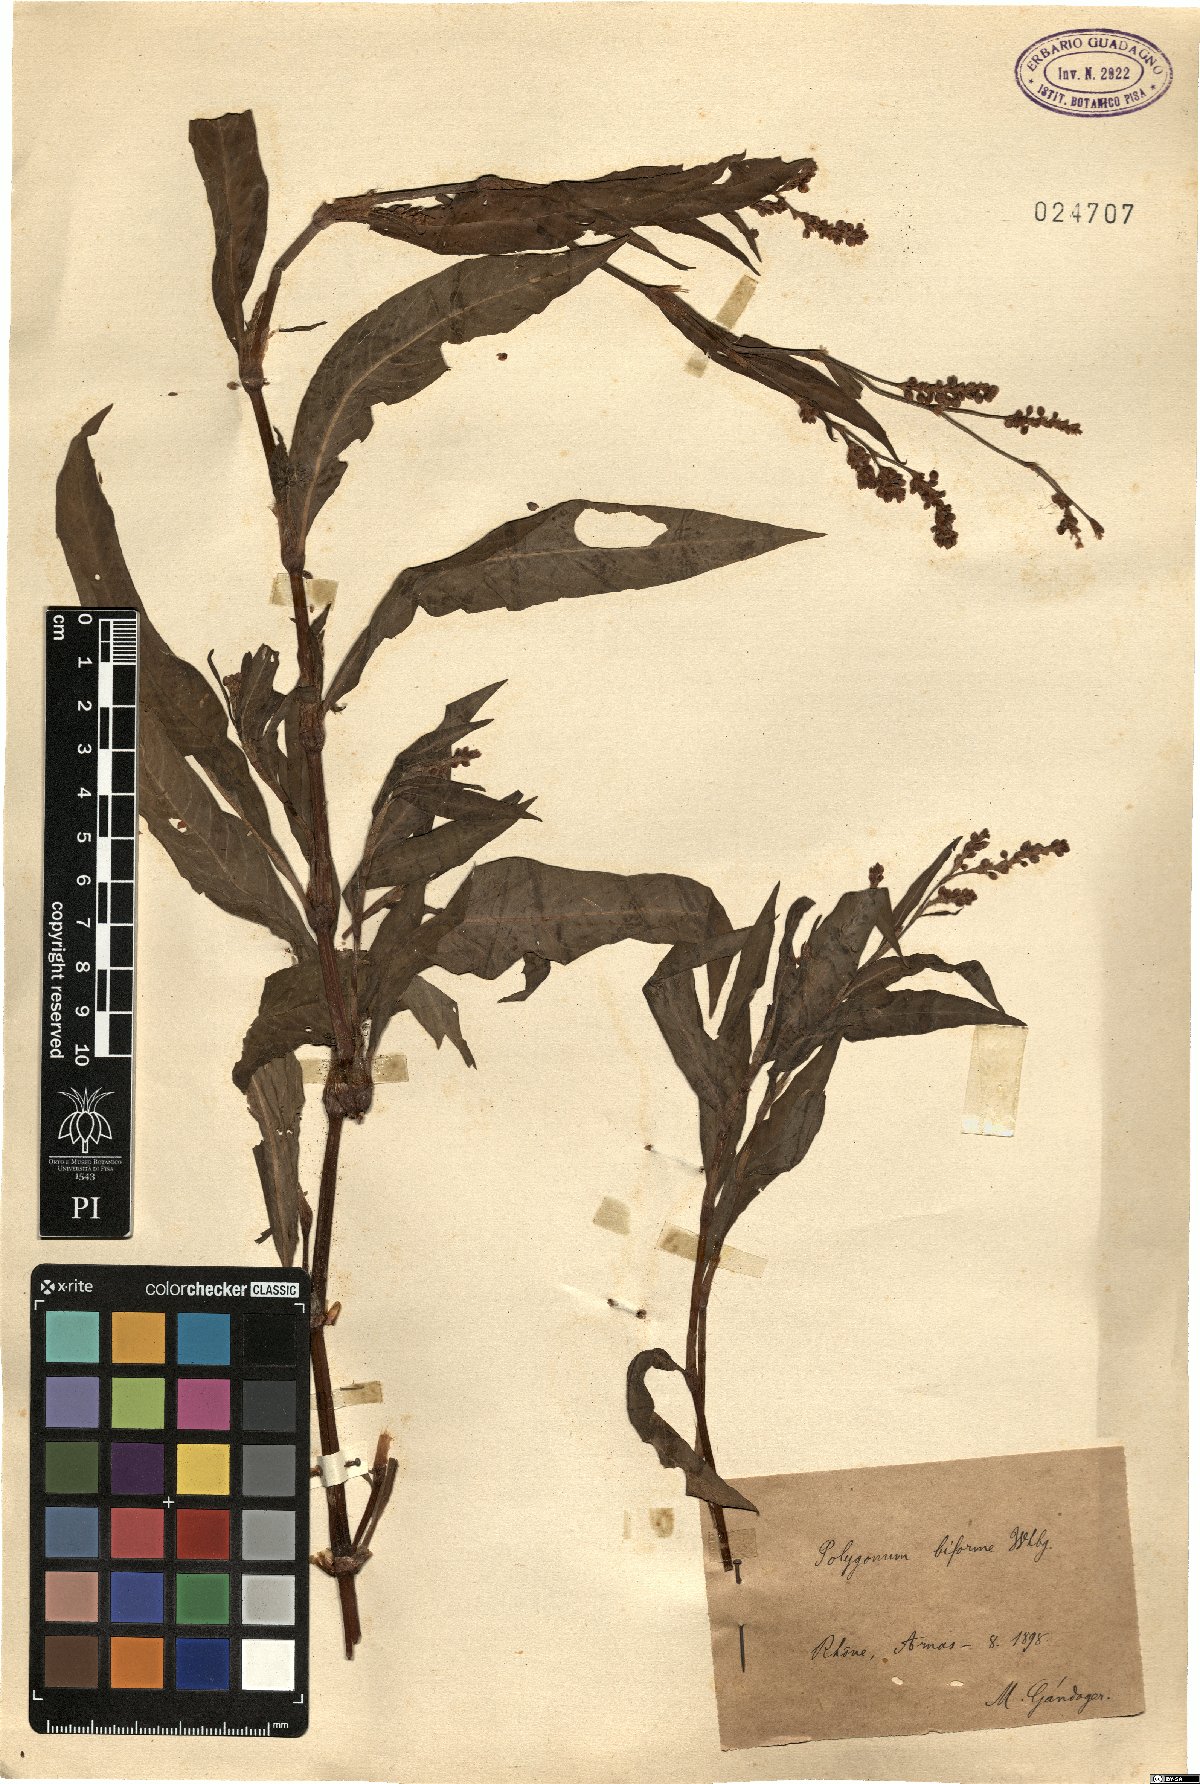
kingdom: Plantae
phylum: Tracheophyta
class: Magnoliopsida
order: Caryophyllales
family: Polygonaceae
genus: Persicaria
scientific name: Persicaria maculosa
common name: Redshank
